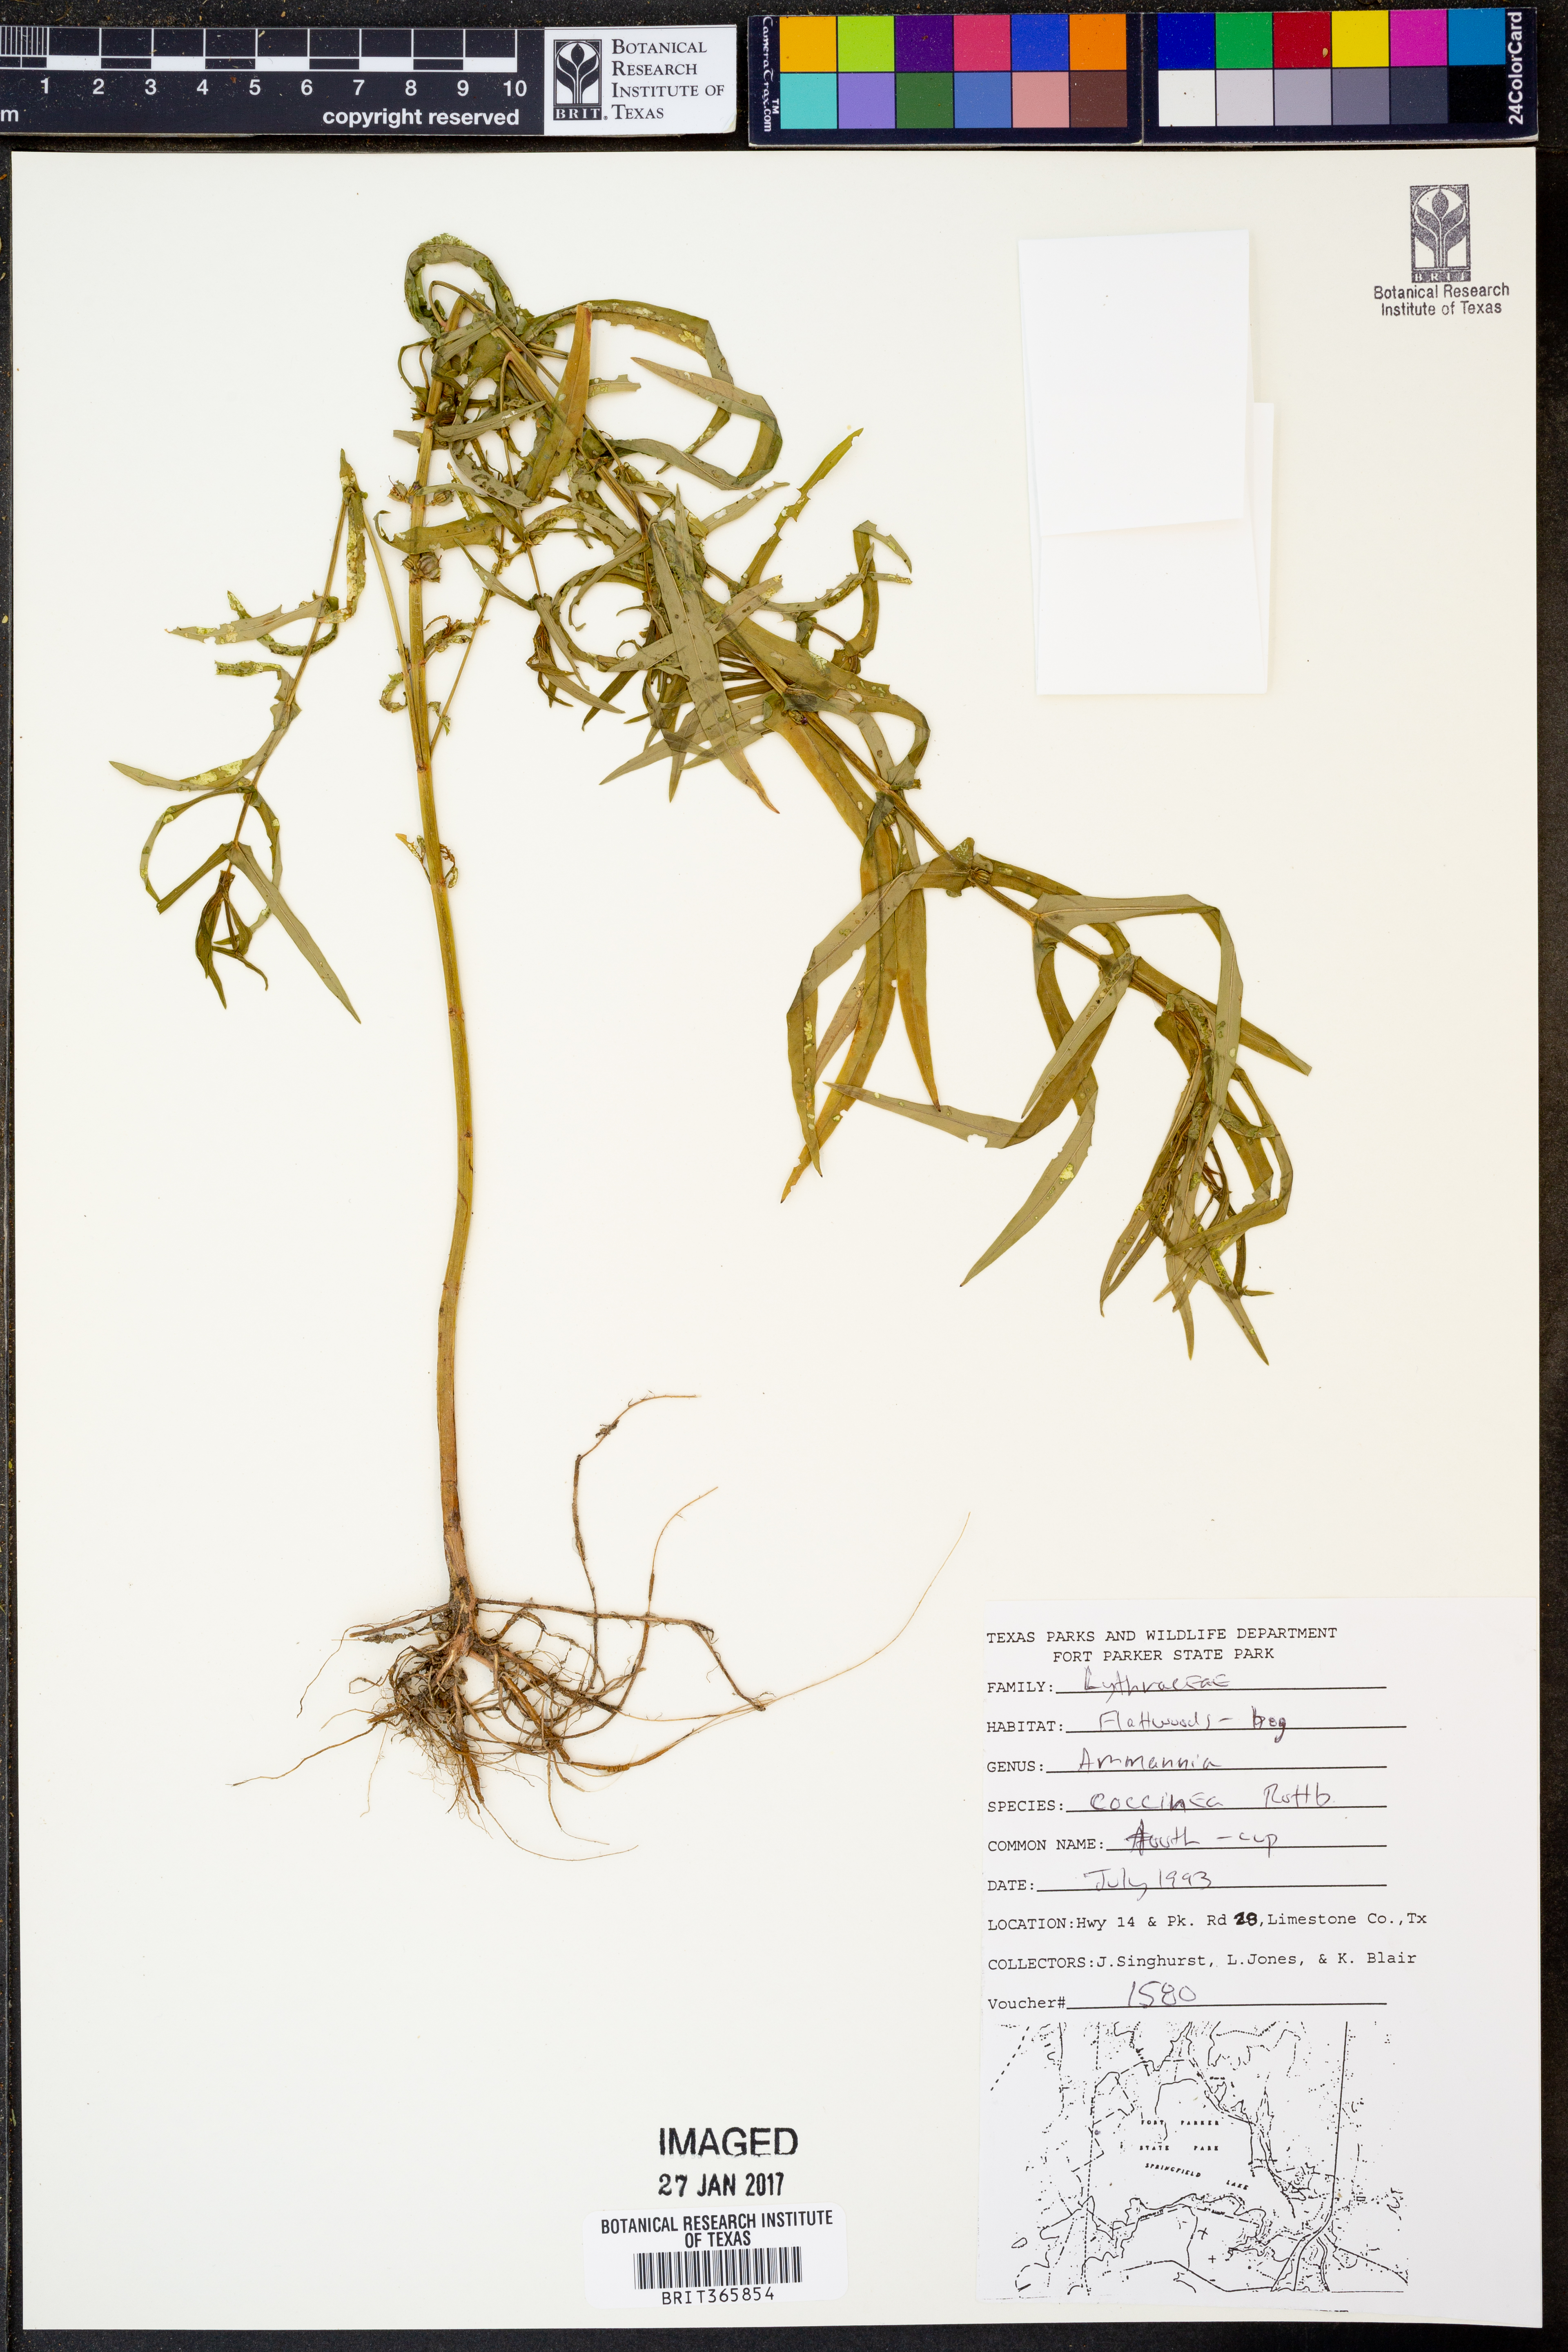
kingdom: Plantae
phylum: Tracheophyta
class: Magnoliopsida
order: Myrtales
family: Lythraceae
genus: Ammannia
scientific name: Ammannia coccinea
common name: Valley redstem
